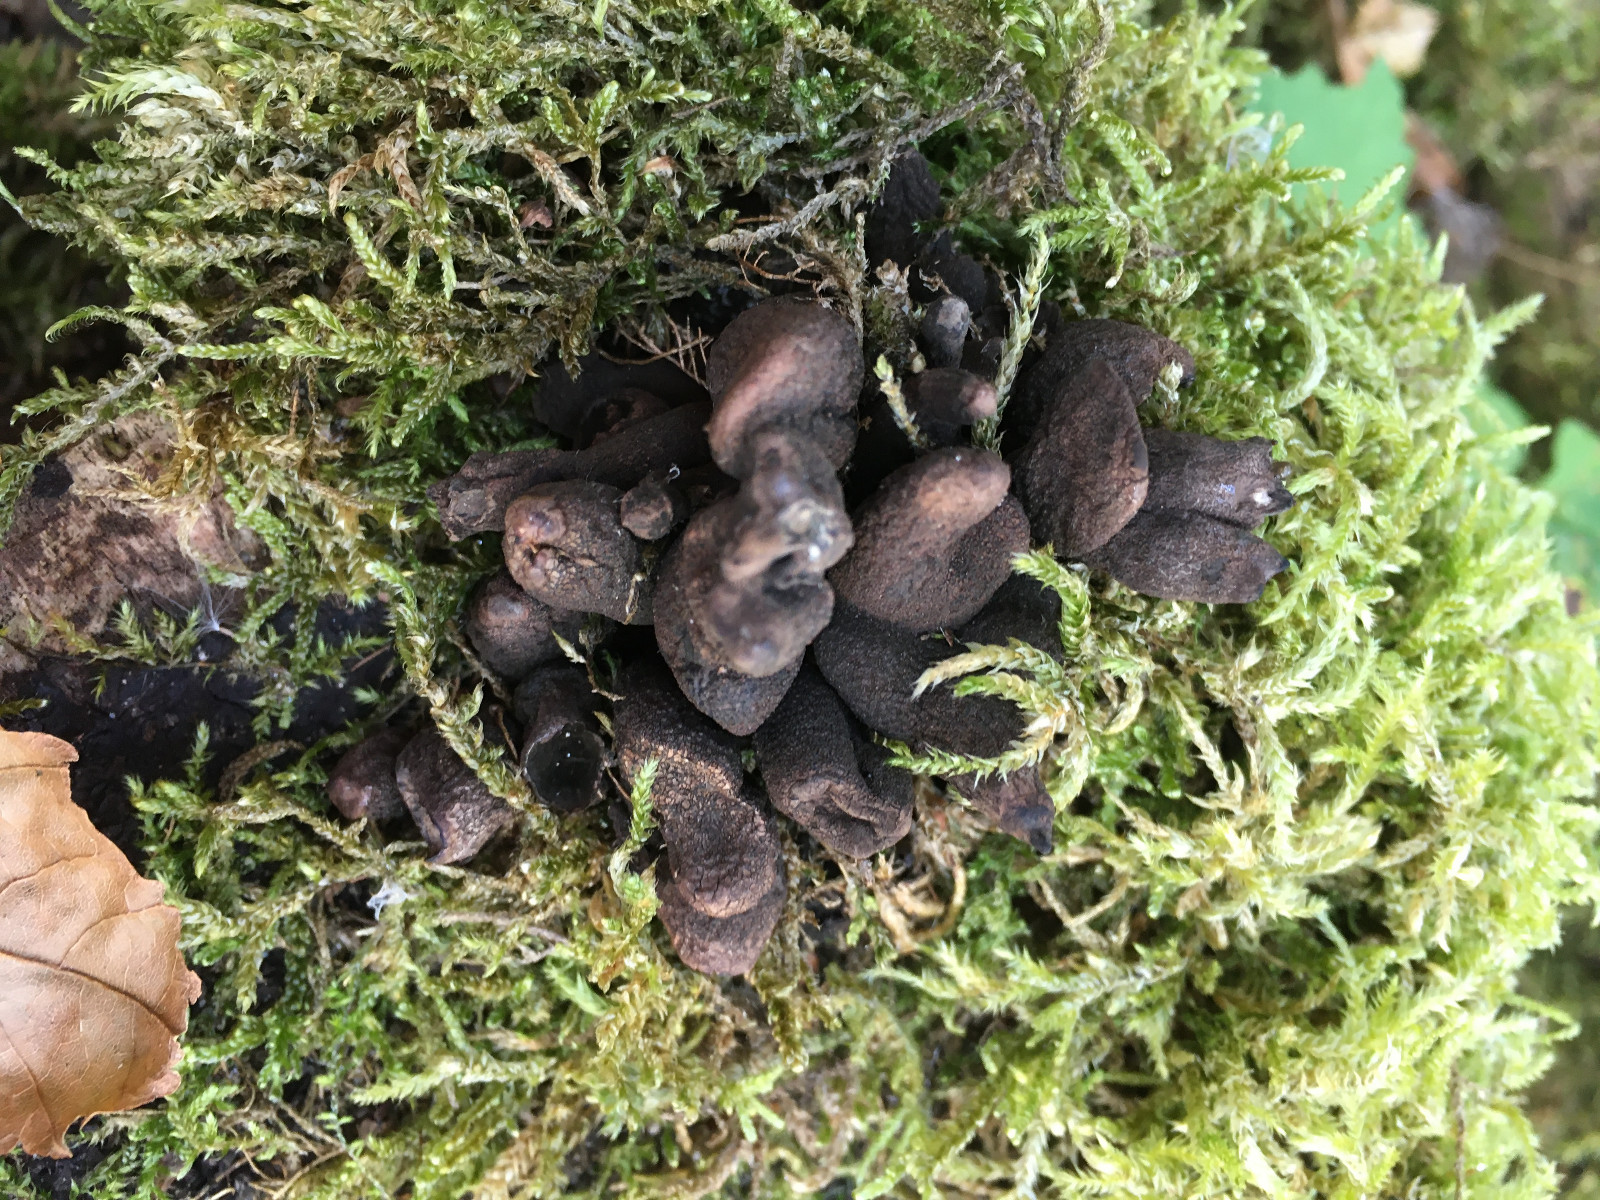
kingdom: Fungi
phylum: Ascomycota
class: Sordariomycetes
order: Xylariales
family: Xylariaceae
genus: Xylaria
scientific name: Xylaria polymorpha
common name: kølle-stødsvamp
